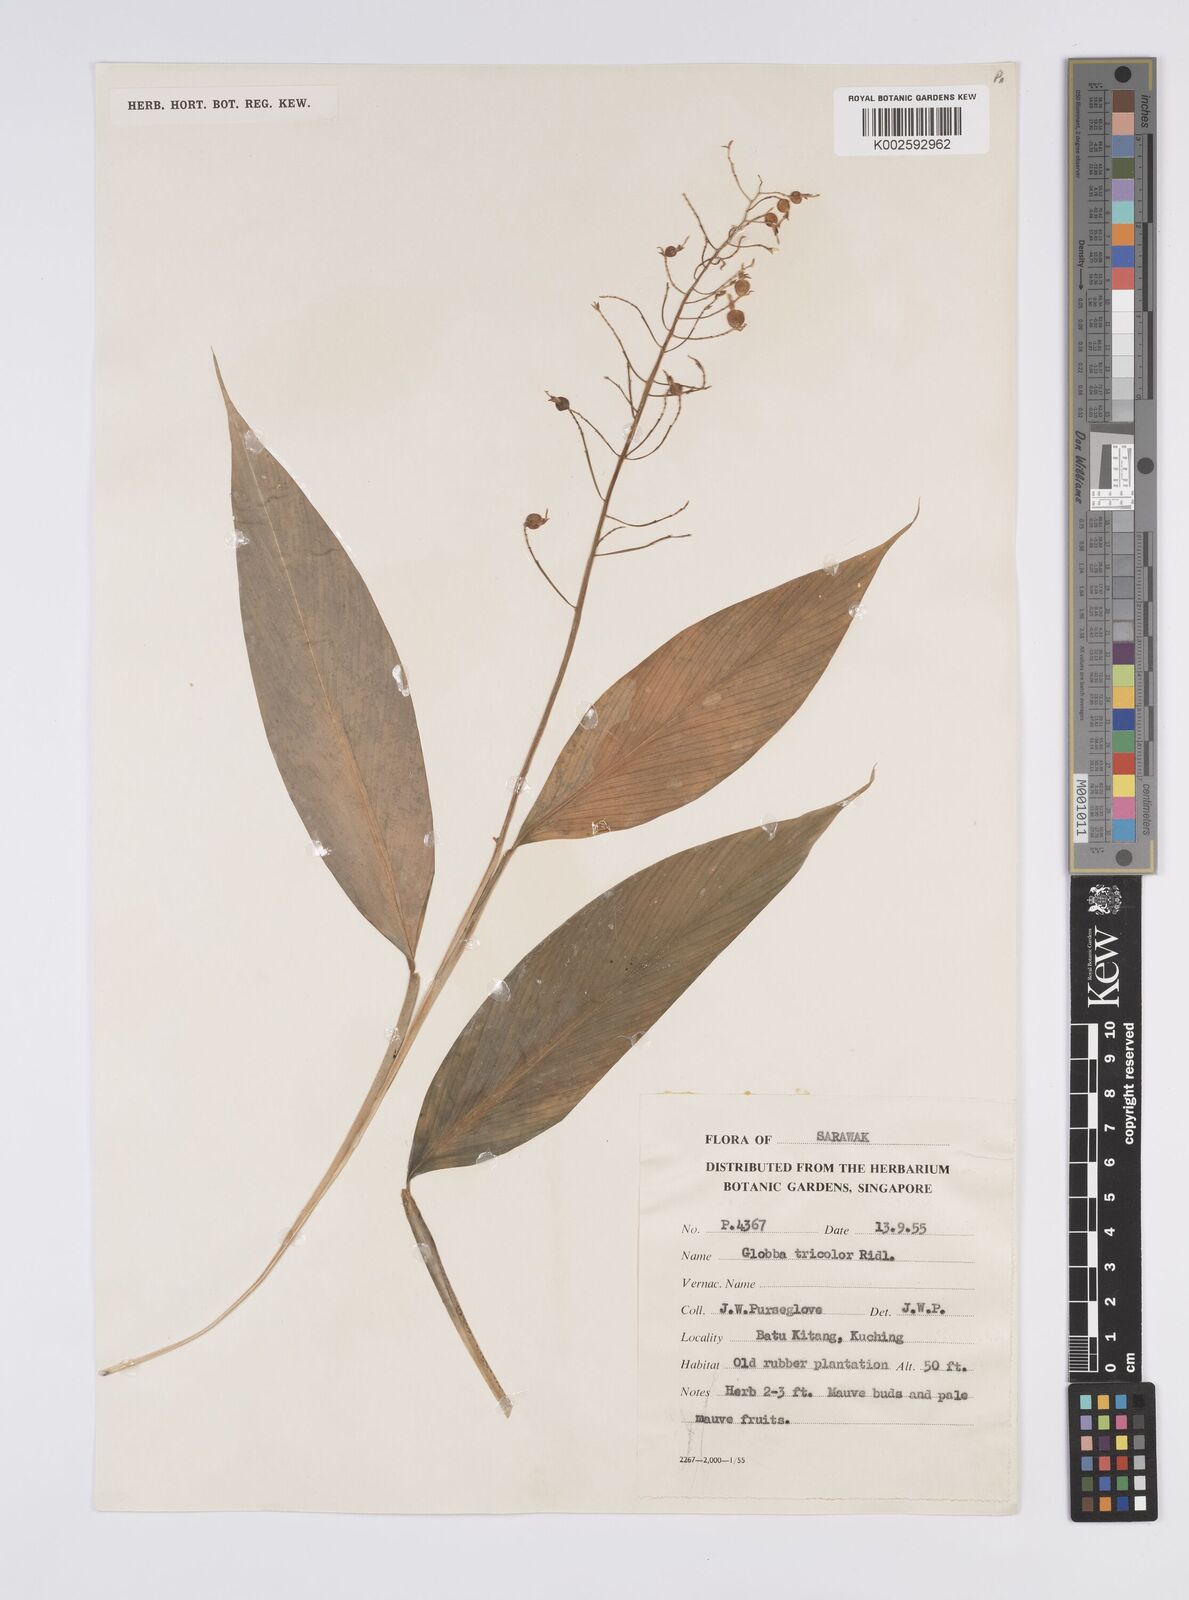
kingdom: Plantae
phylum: Tracheophyta
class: Liliopsida
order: Zingiberales
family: Zingiberaceae
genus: Globba
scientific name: Globba tricolor
